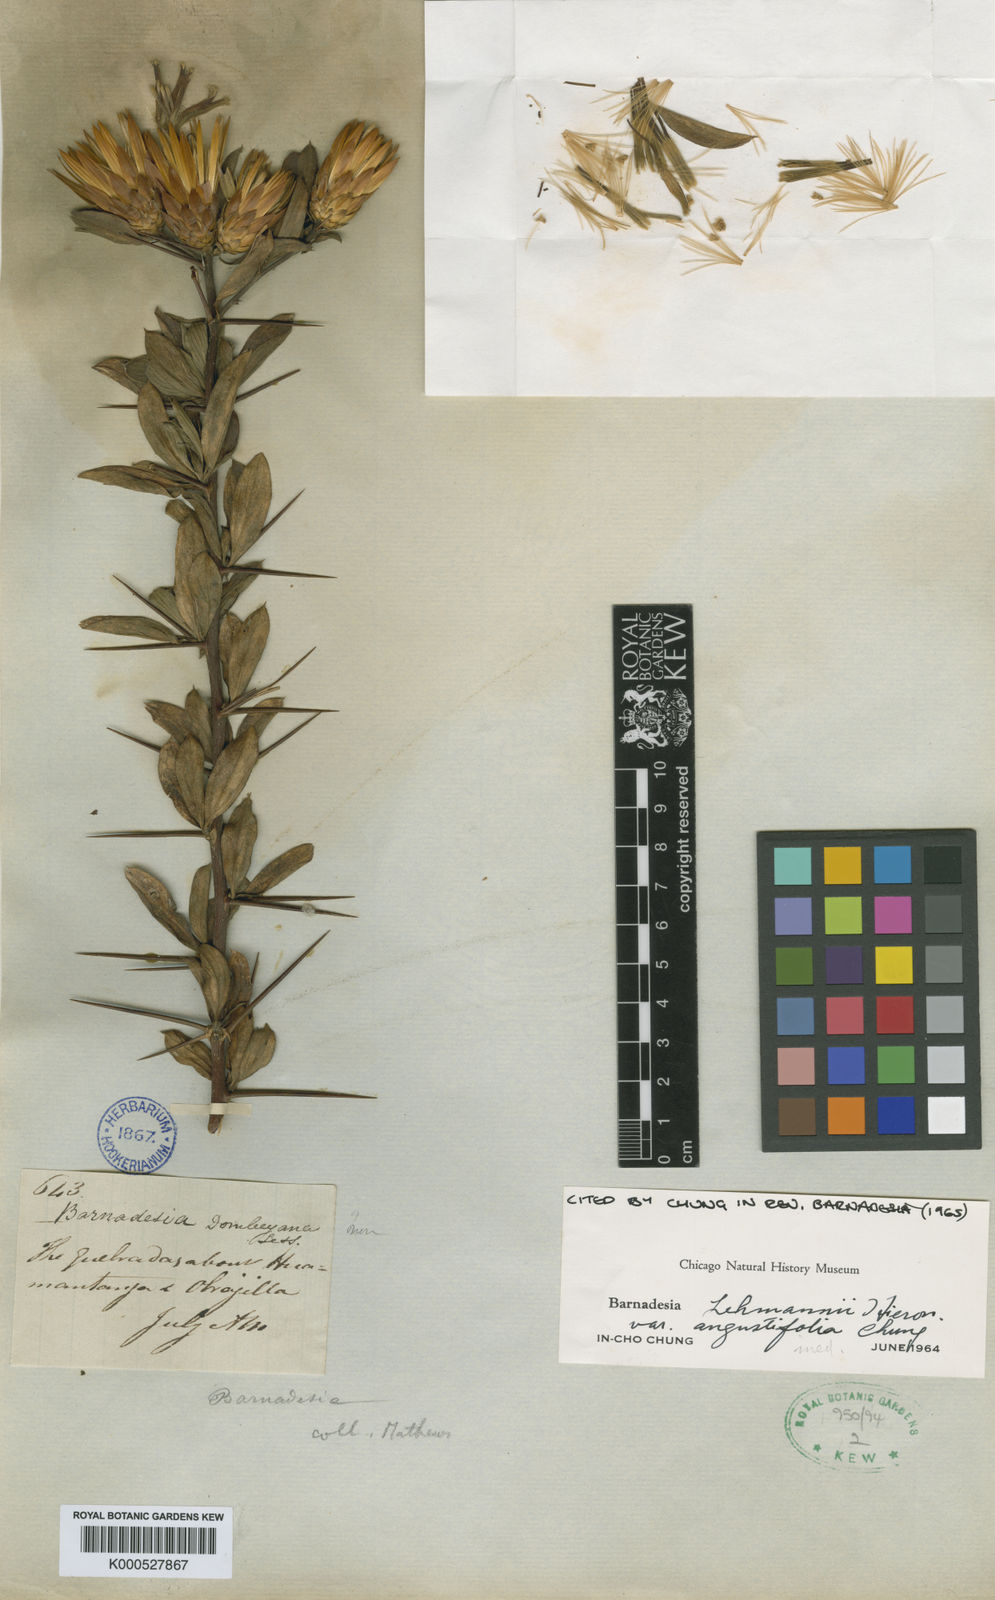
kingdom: Plantae
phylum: Tracheophyta
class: Magnoliopsida
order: Asterales
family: Asteraceae
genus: Barnadesia
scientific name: Barnadesia lehmannii
